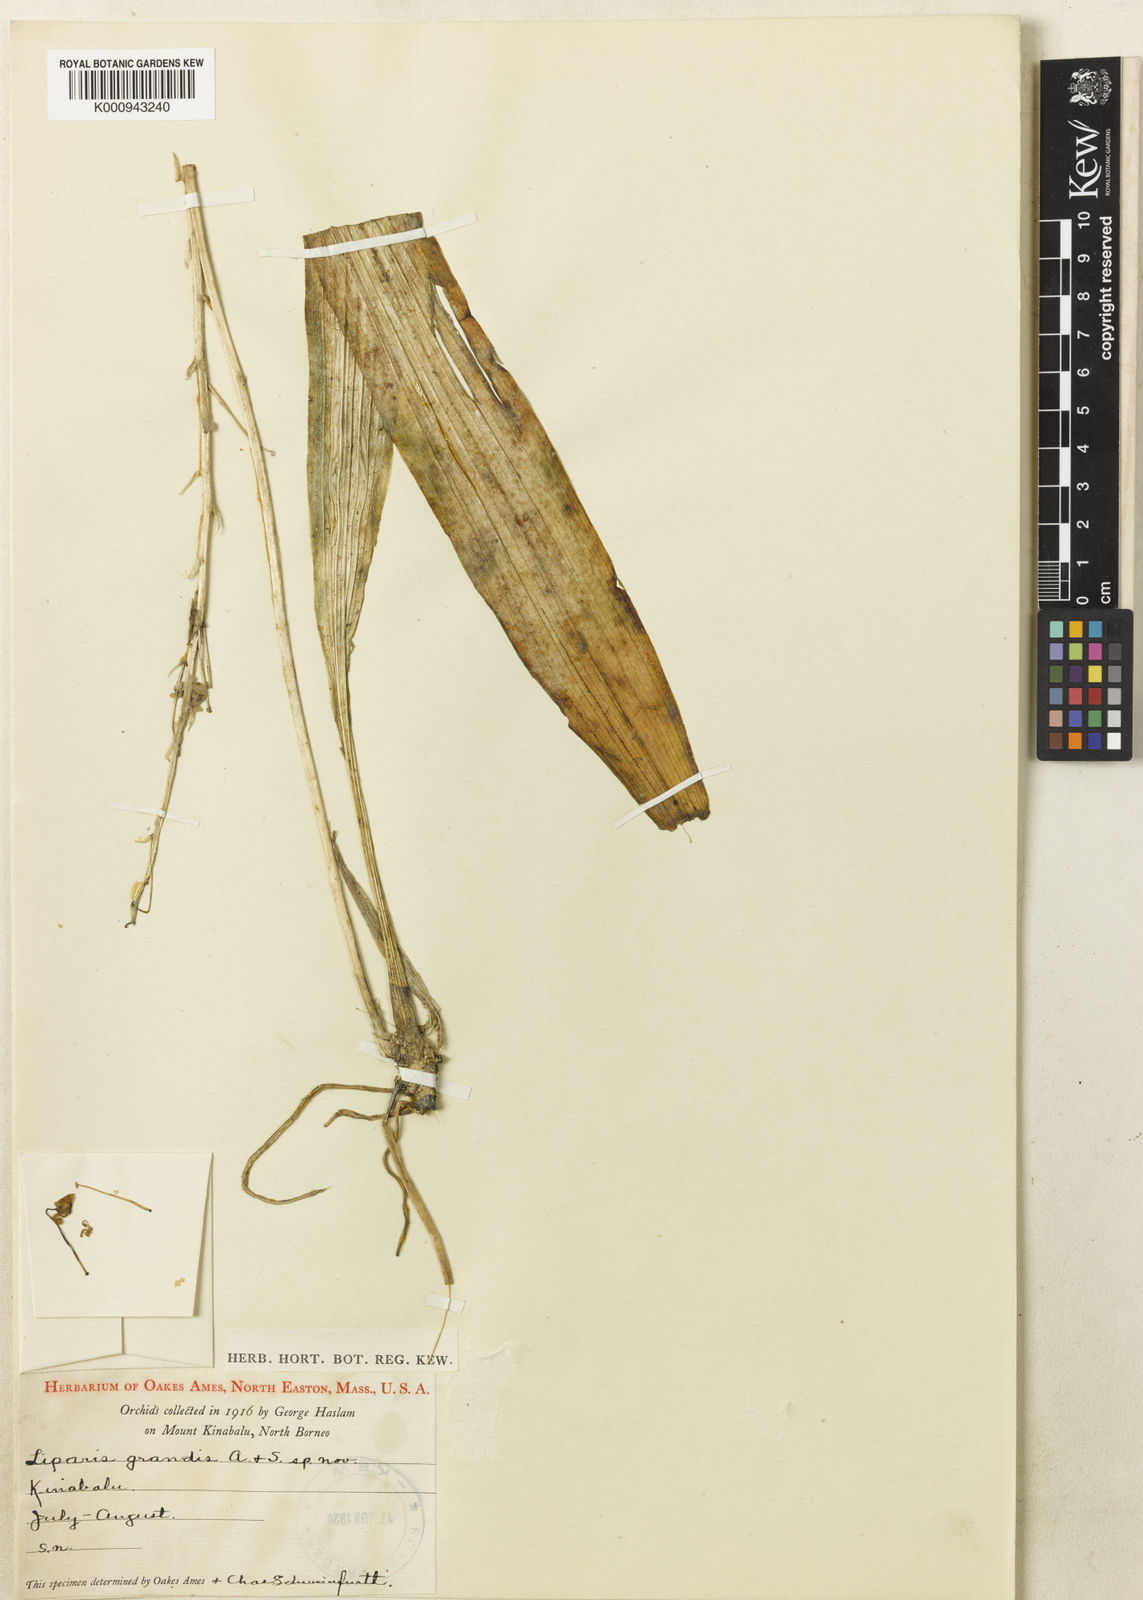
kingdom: Plantae
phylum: Tracheophyta
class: Liliopsida
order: Asparagales
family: Orchidaceae
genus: Liparis
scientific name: Liparis
